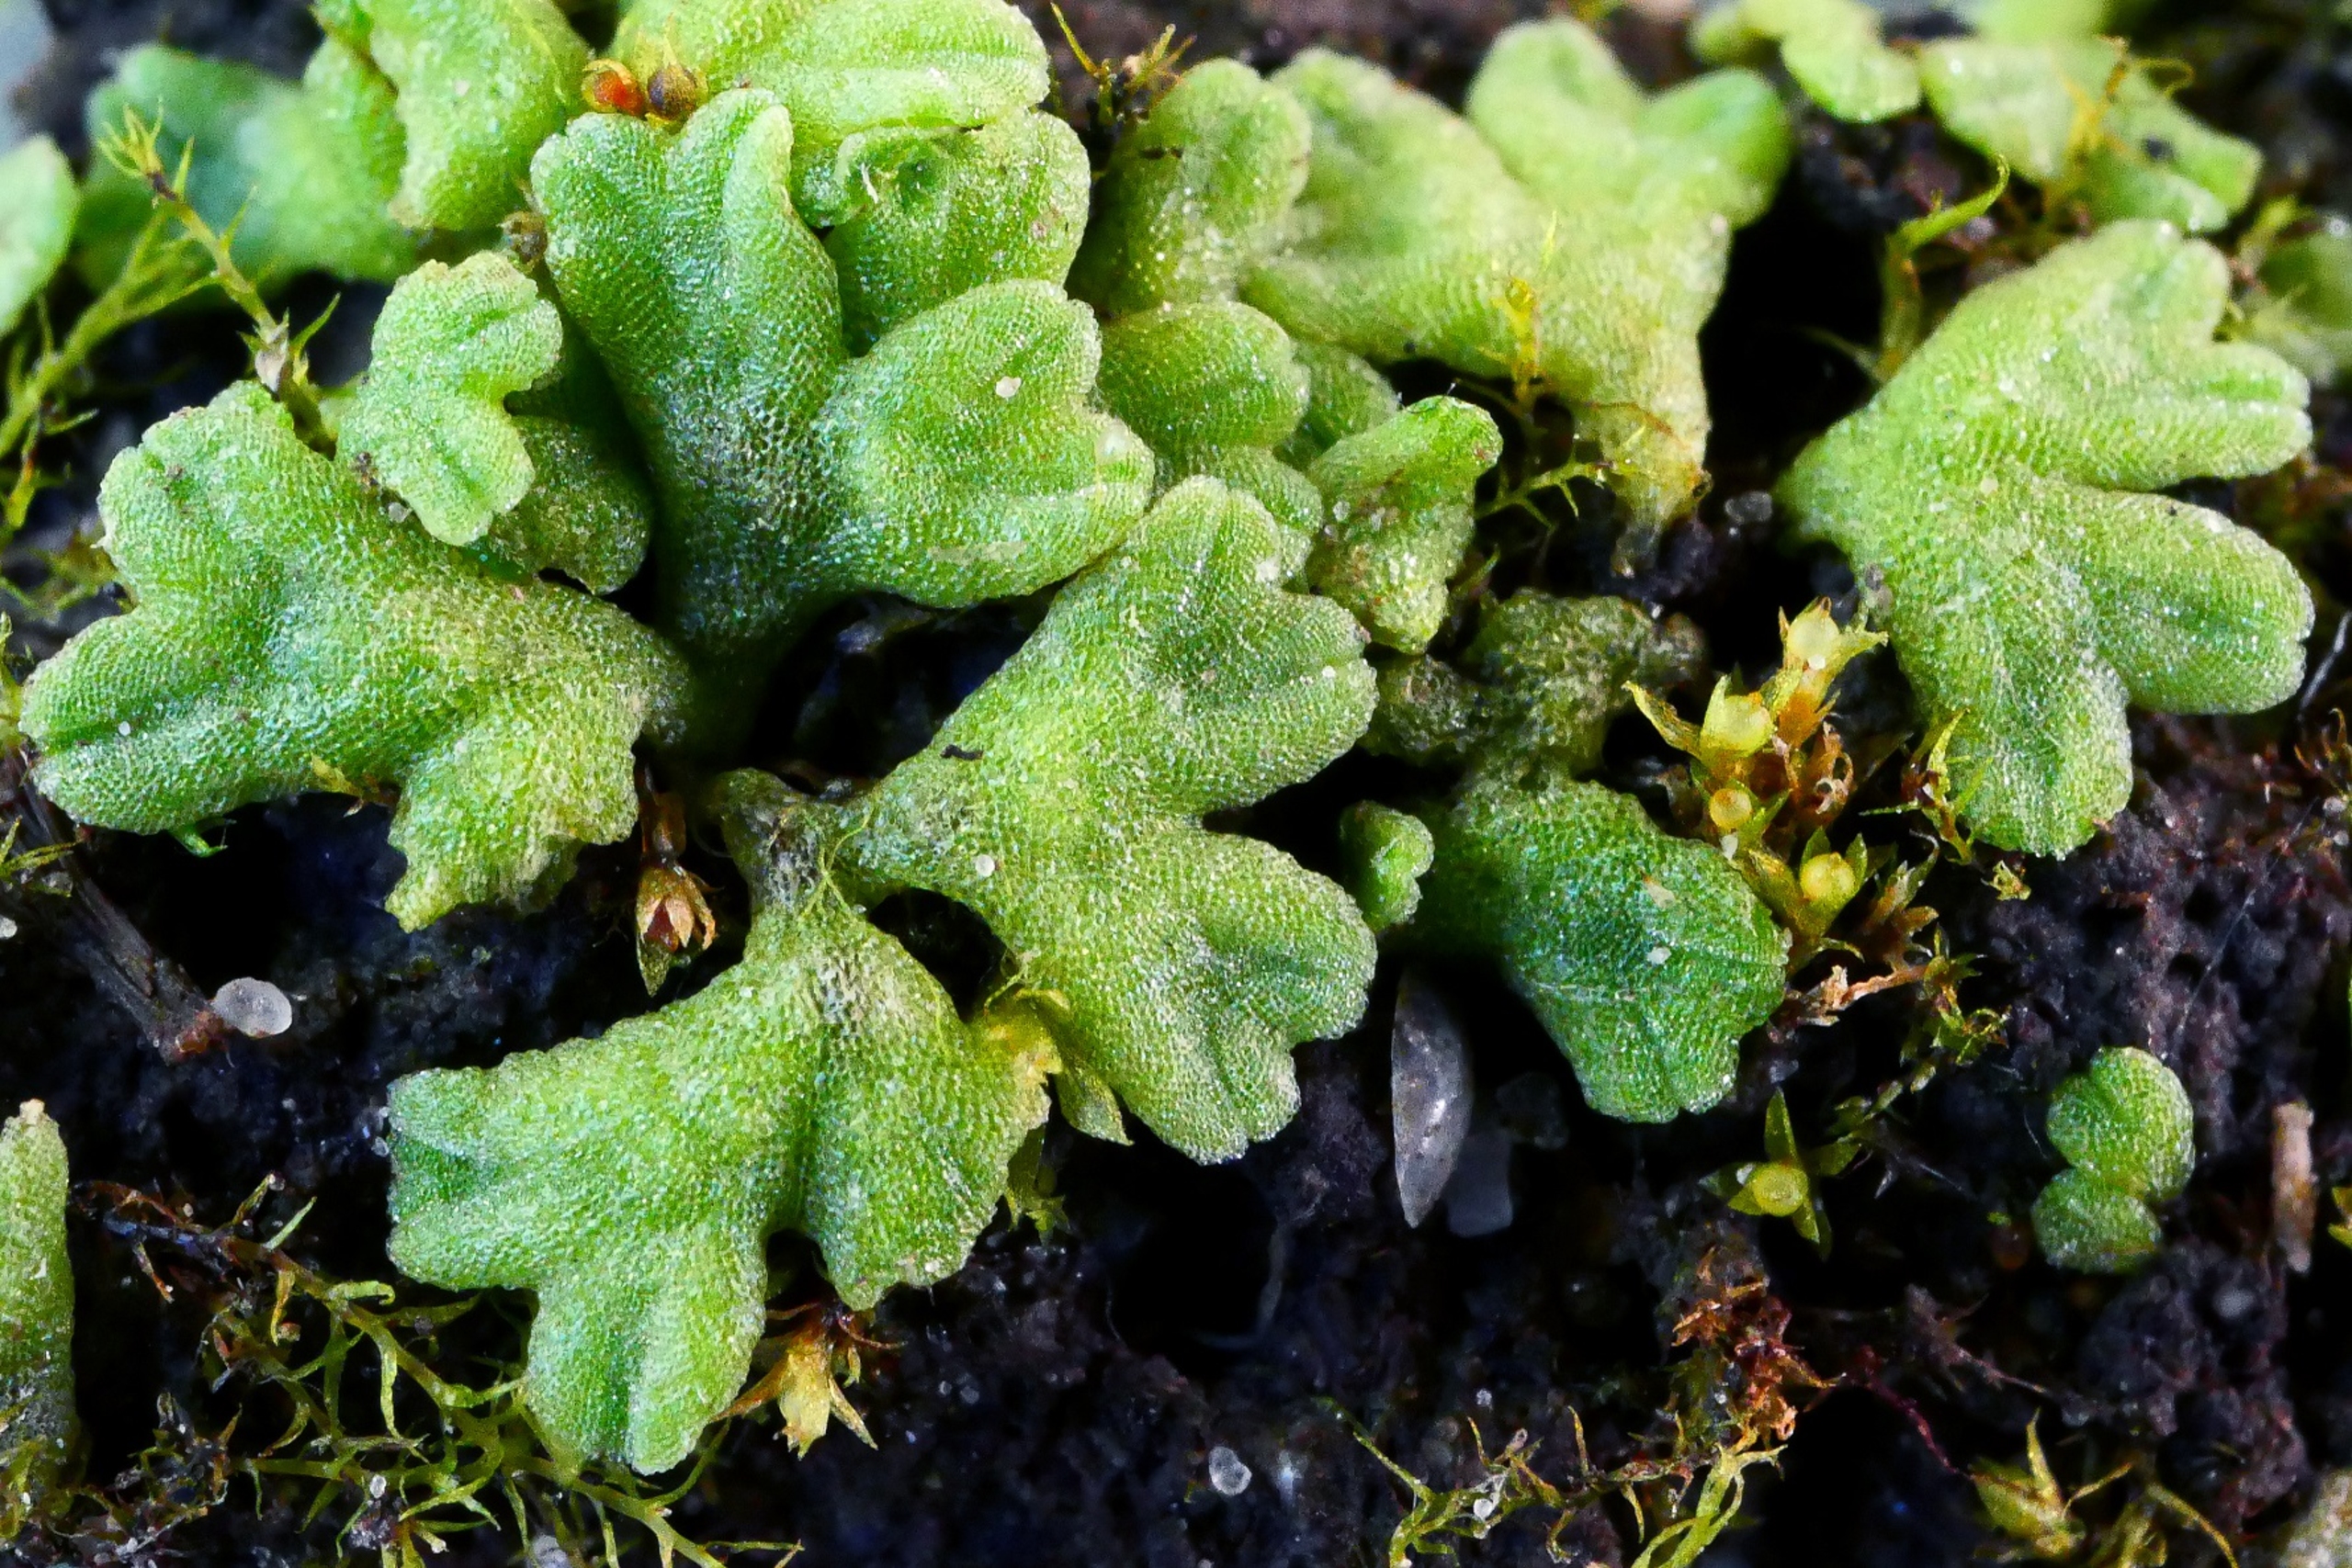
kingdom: Plantae
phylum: Marchantiophyta
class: Marchantiopsida
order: Marchantiales
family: Ricciaceae
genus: Riccia
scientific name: Riccia glauca
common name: Blågrøn stjerneløv
